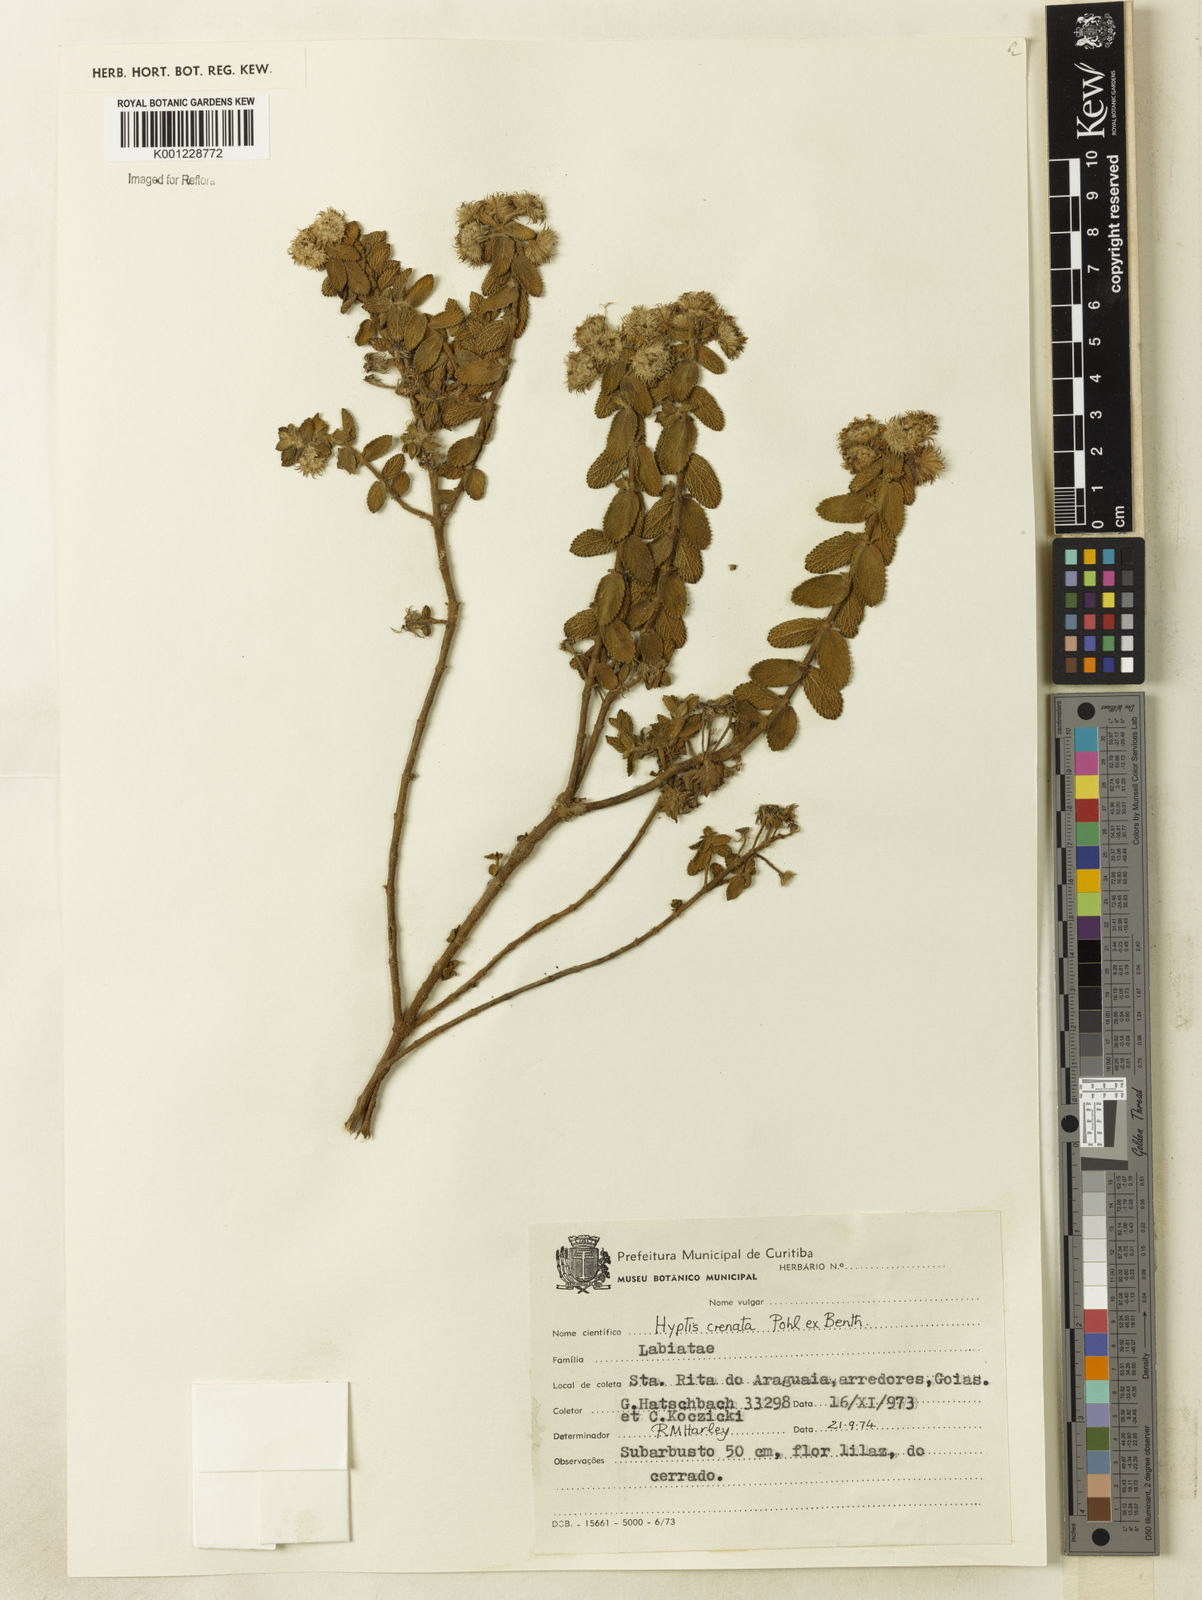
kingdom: Plantae
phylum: Tracheophyta
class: Magnoliopsida
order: Lamiales
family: Lamiaceae
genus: Hyptis
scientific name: Hyptis crenata
